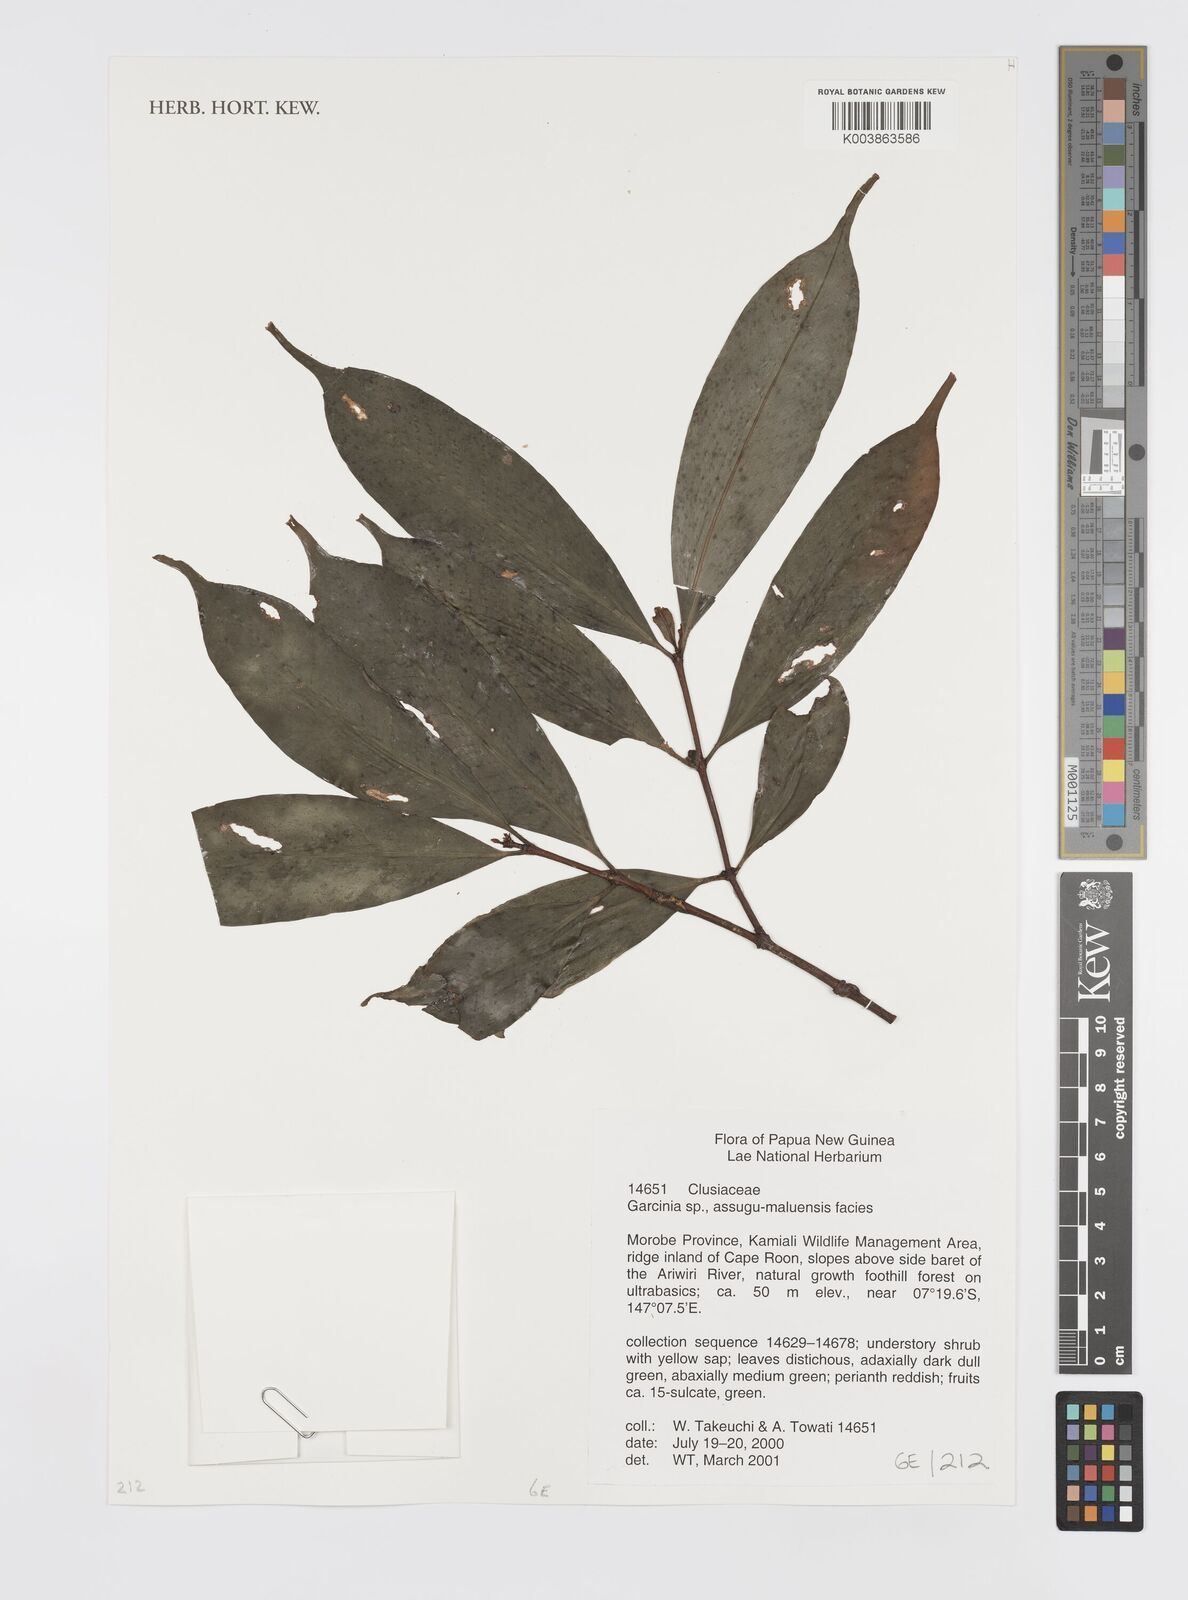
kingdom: Plantae
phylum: Tracheophyta
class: Magnoliopsida
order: Malpighiales
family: Clusiaceae
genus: Garcinia
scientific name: Garcinia
